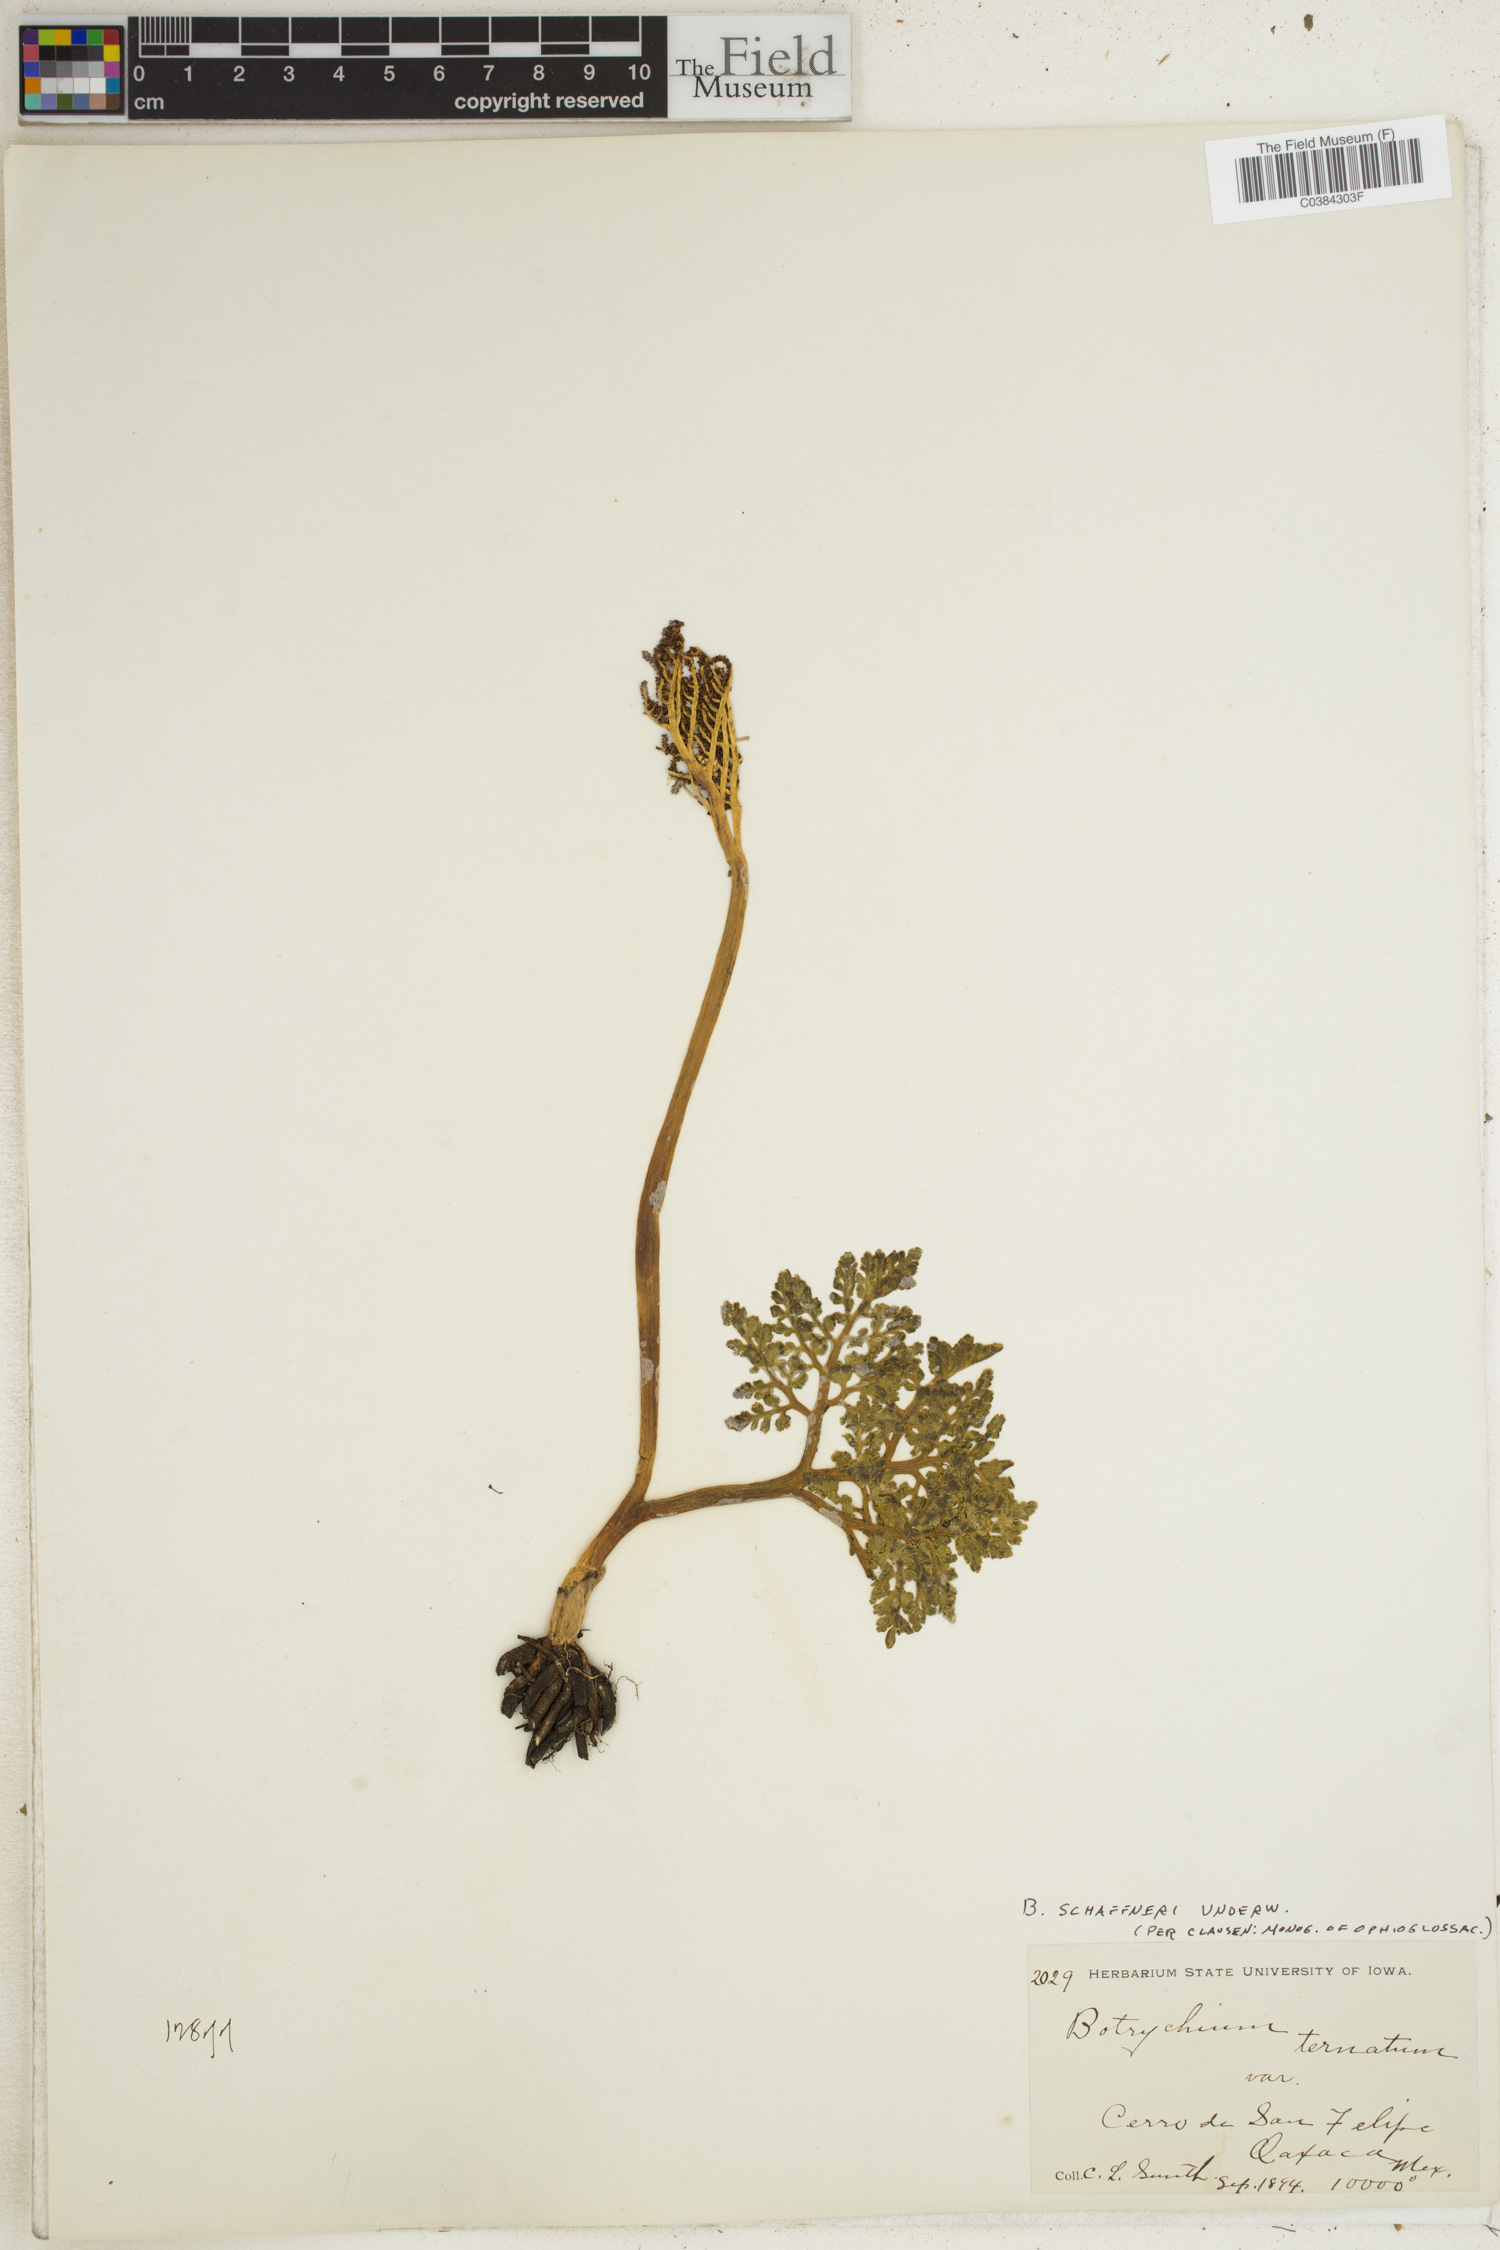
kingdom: Plantae
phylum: Tracheophyta
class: Polypodiopsida
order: Ophioglossales
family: Ophioglossaceae
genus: Sceptridium
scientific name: Sceptridium schaffneri
